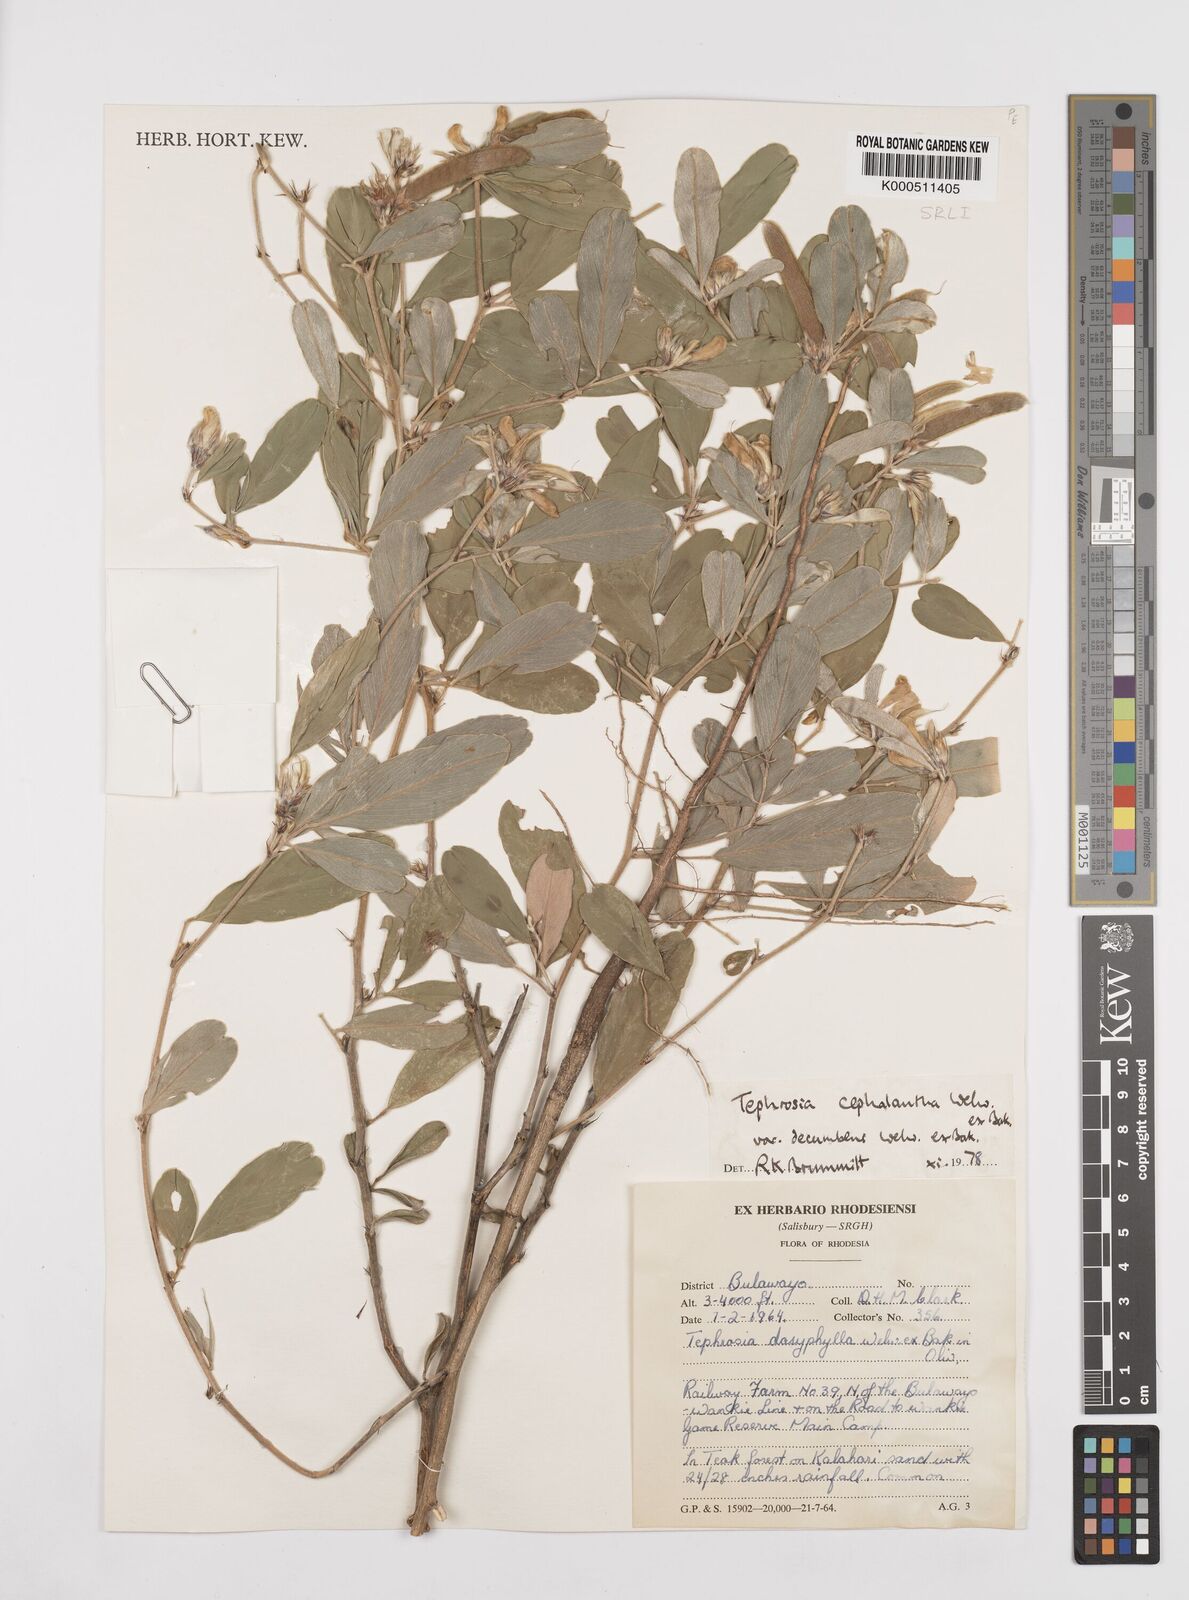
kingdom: Plantae
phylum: Tracheophyta
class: Magnoliopsida
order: Fabales
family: Fabaceae
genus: Tephrosia
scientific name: Tephrosia
